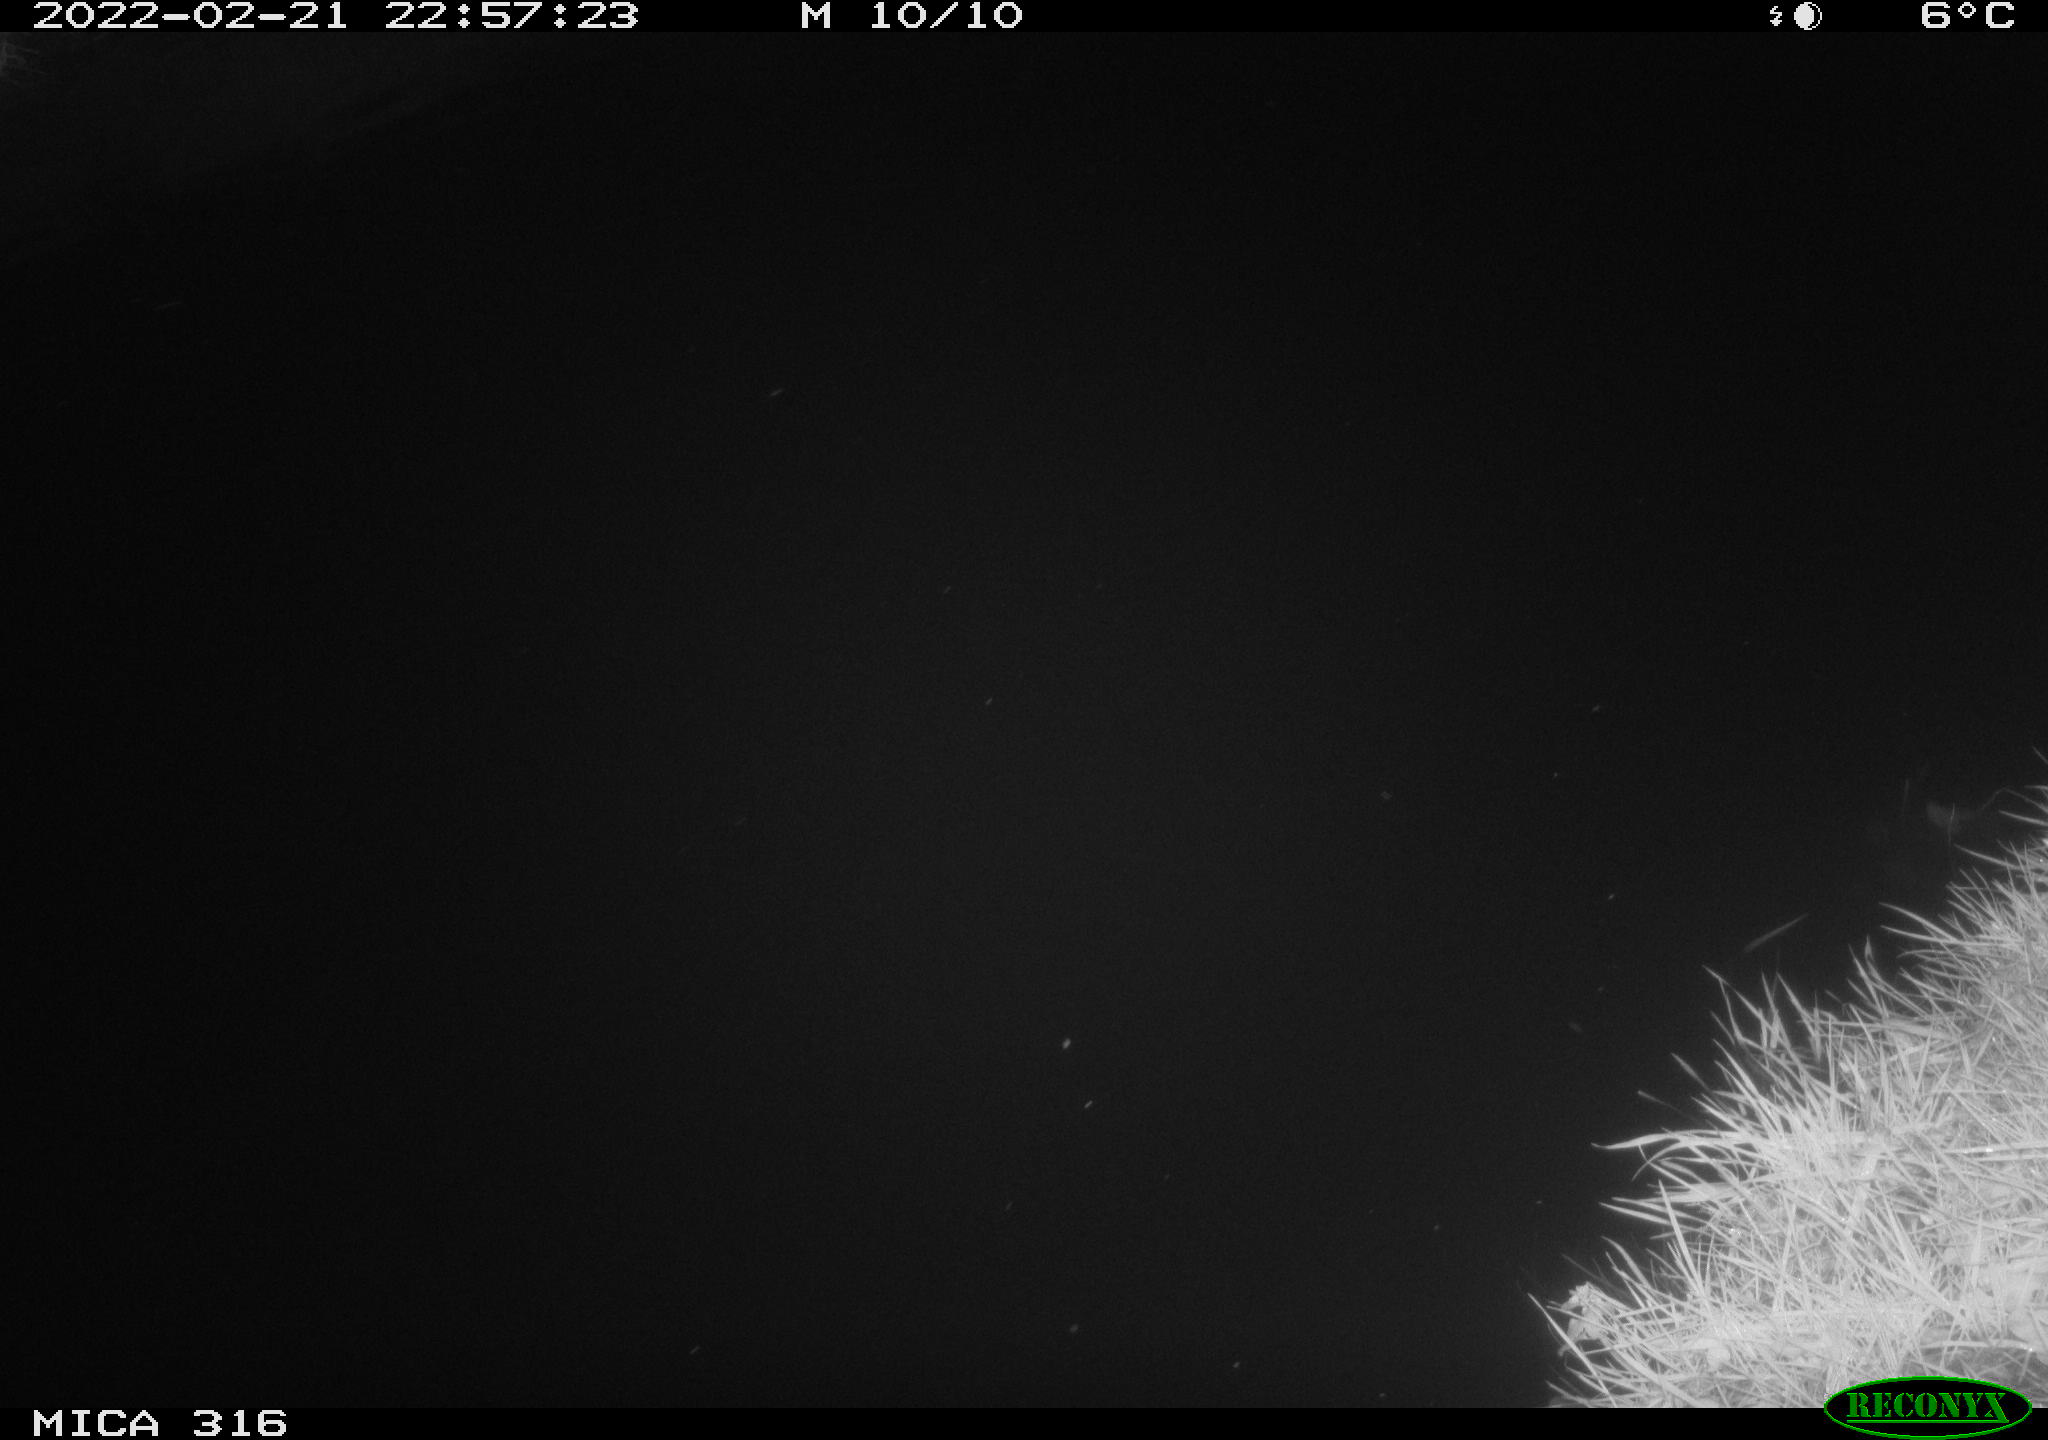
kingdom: Animalia
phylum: Chordata
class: Mammalia
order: Rodentia
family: Muridae
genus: Rattus
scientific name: Rattus norvegicus
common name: Brown rat
